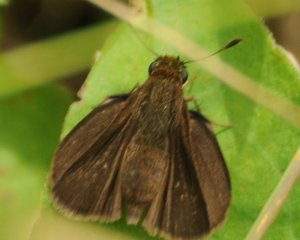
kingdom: Animalia
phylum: Arthropoda
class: Insecta
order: Lepidoptera
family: Hesperiidae
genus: Euphyes
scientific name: Euphyes vestris
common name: Dun Skipper
